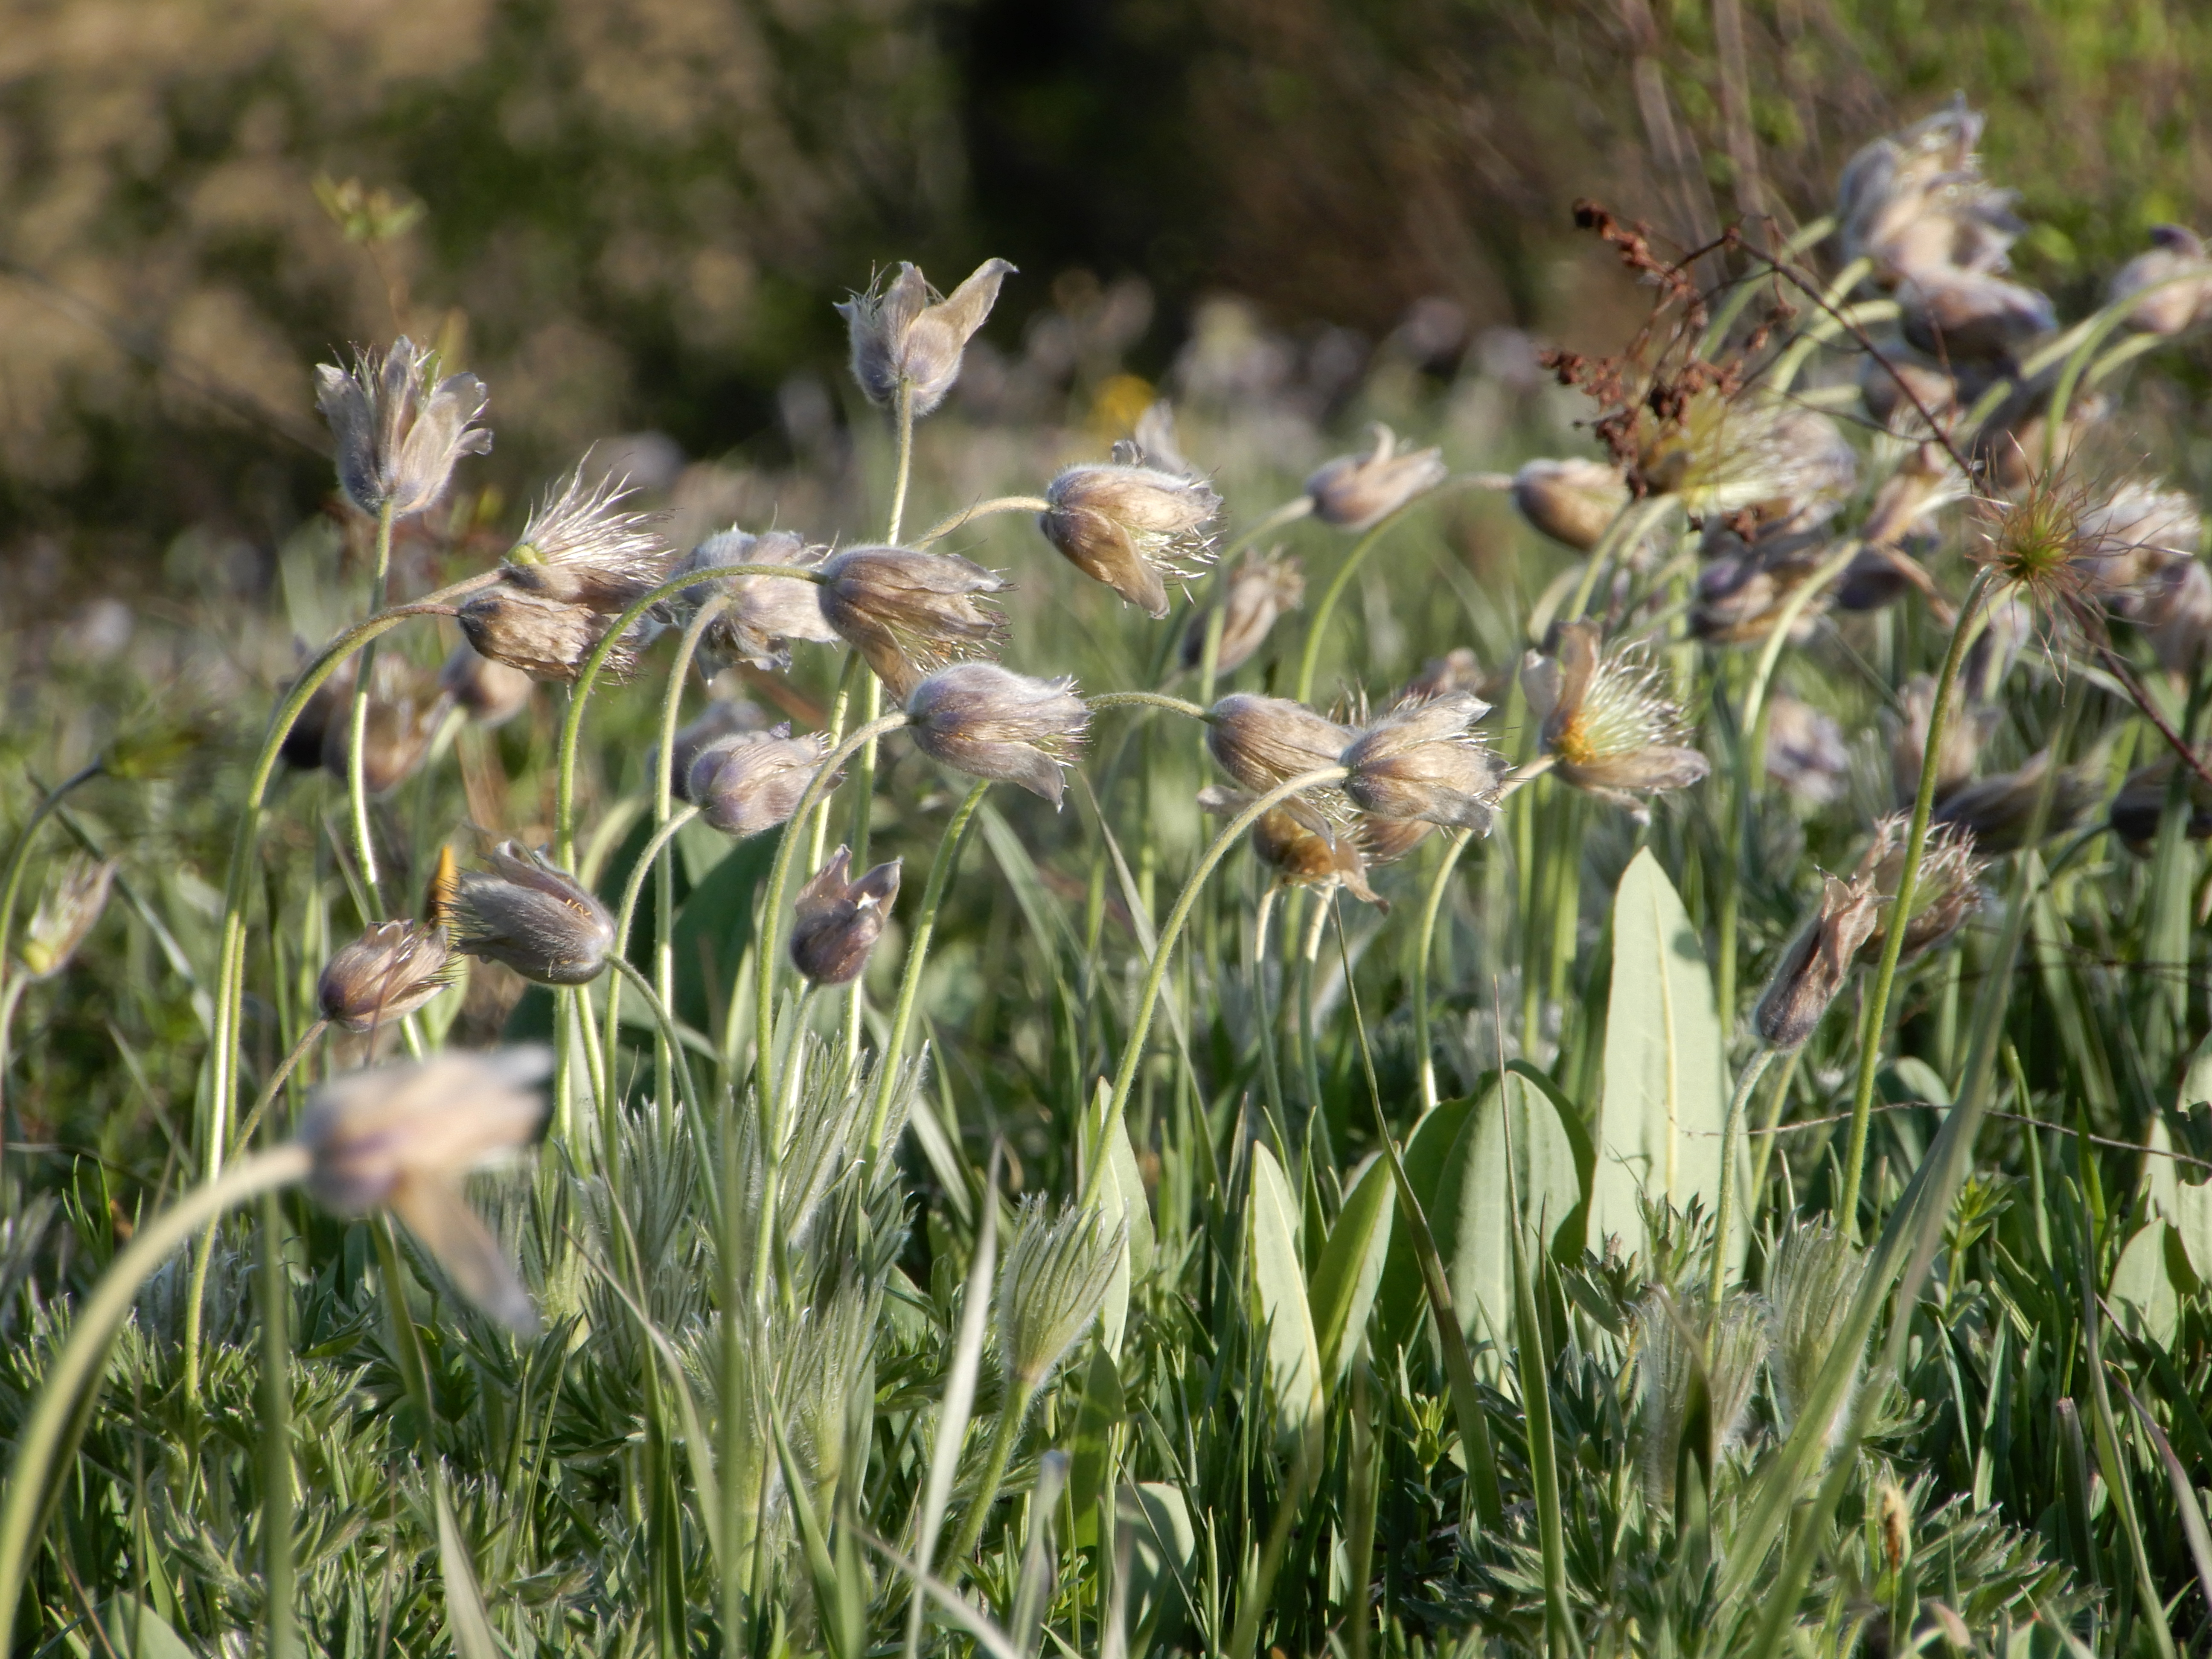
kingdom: Plantae
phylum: Tracheophyta
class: Magnoliopsida
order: Ranunculales
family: Ranunculaceae
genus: Pulsatilla
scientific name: Pulsatilla patens
